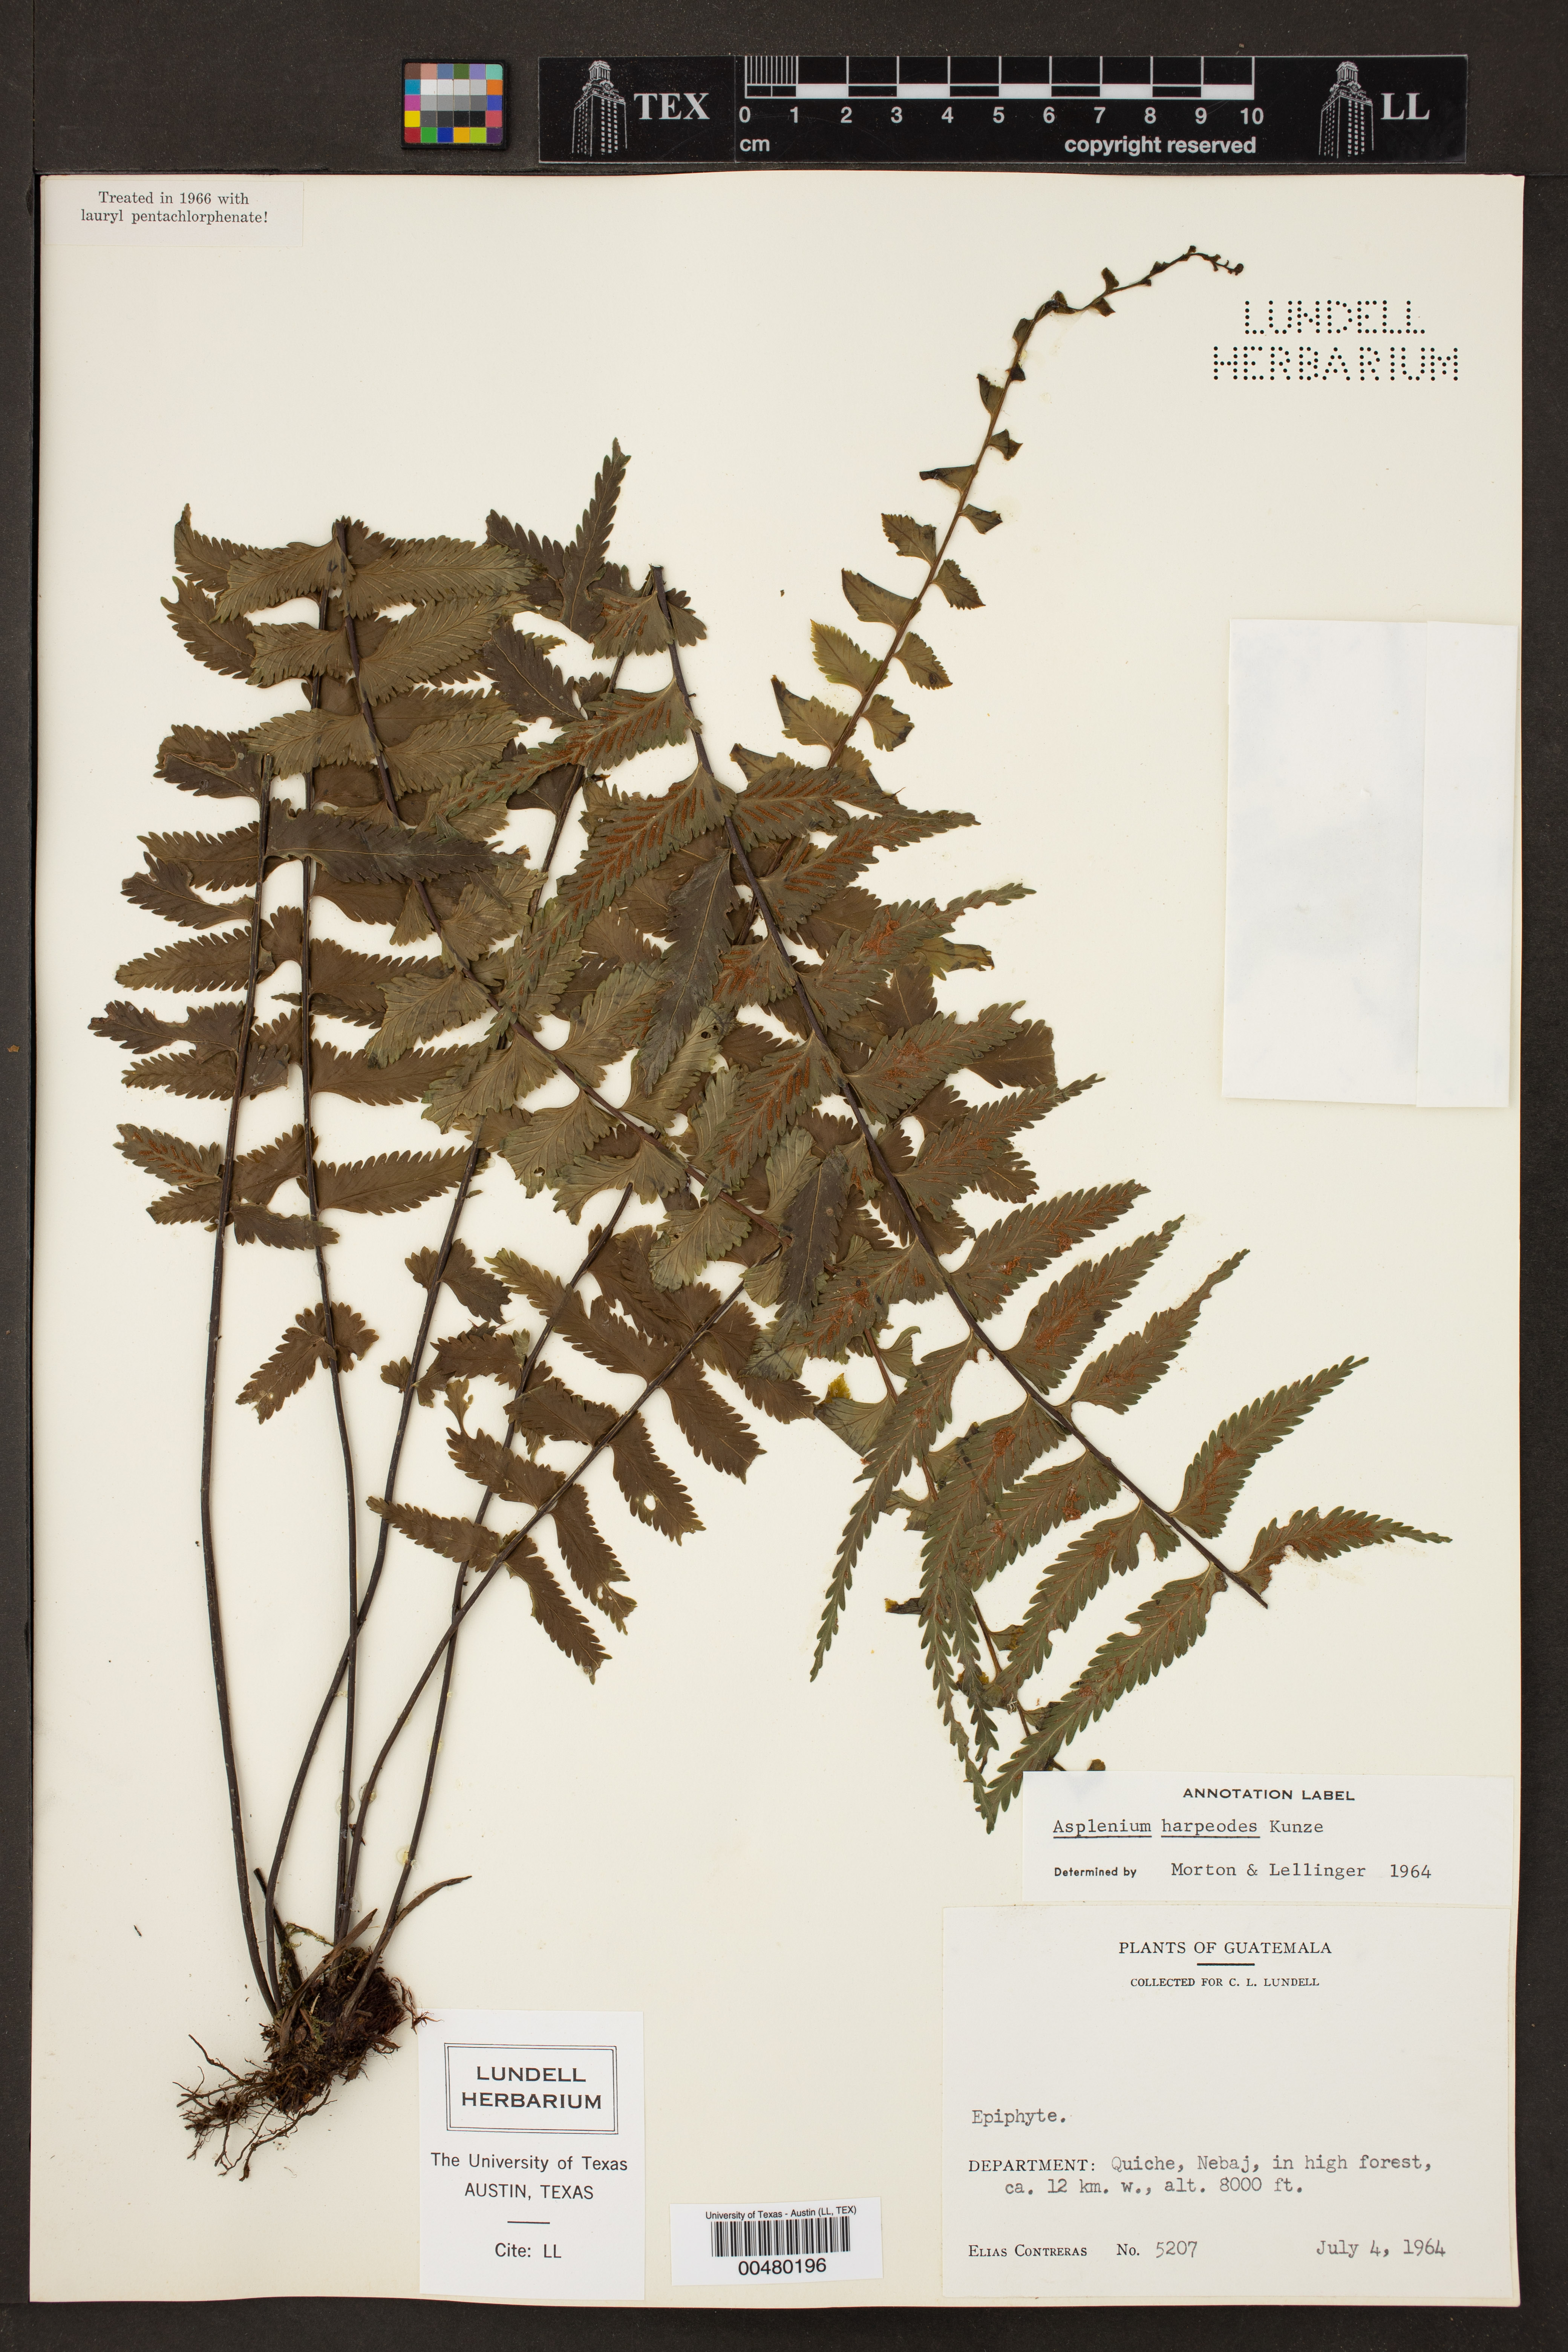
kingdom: Plantae
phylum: Tracheophyta
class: Polypodiopsida
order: Polypodiales
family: Aspleniaceae
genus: Asplenium
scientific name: Asplenium harpeodes
